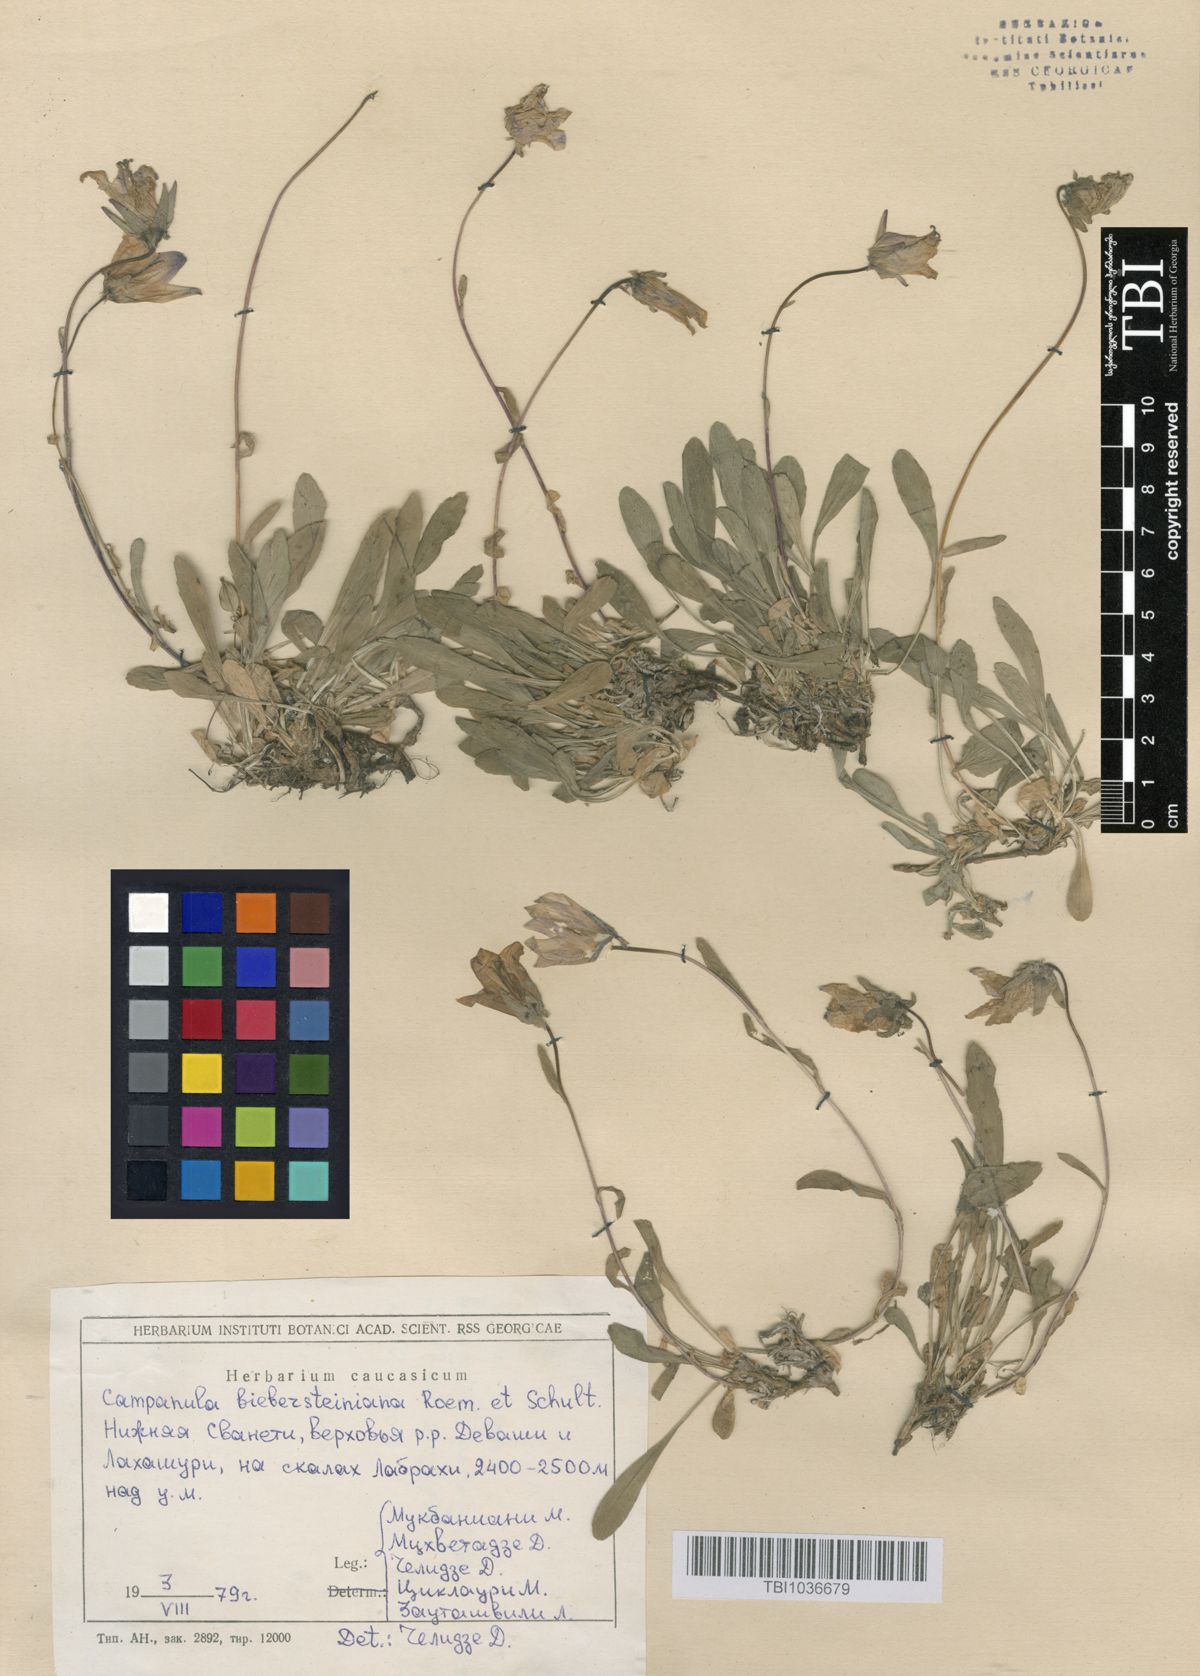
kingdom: Plantae
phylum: Tracheophyta
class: Magnoliopsida
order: Asterales
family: Campanulaceae
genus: Campanula
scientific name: Campanula tridentata
